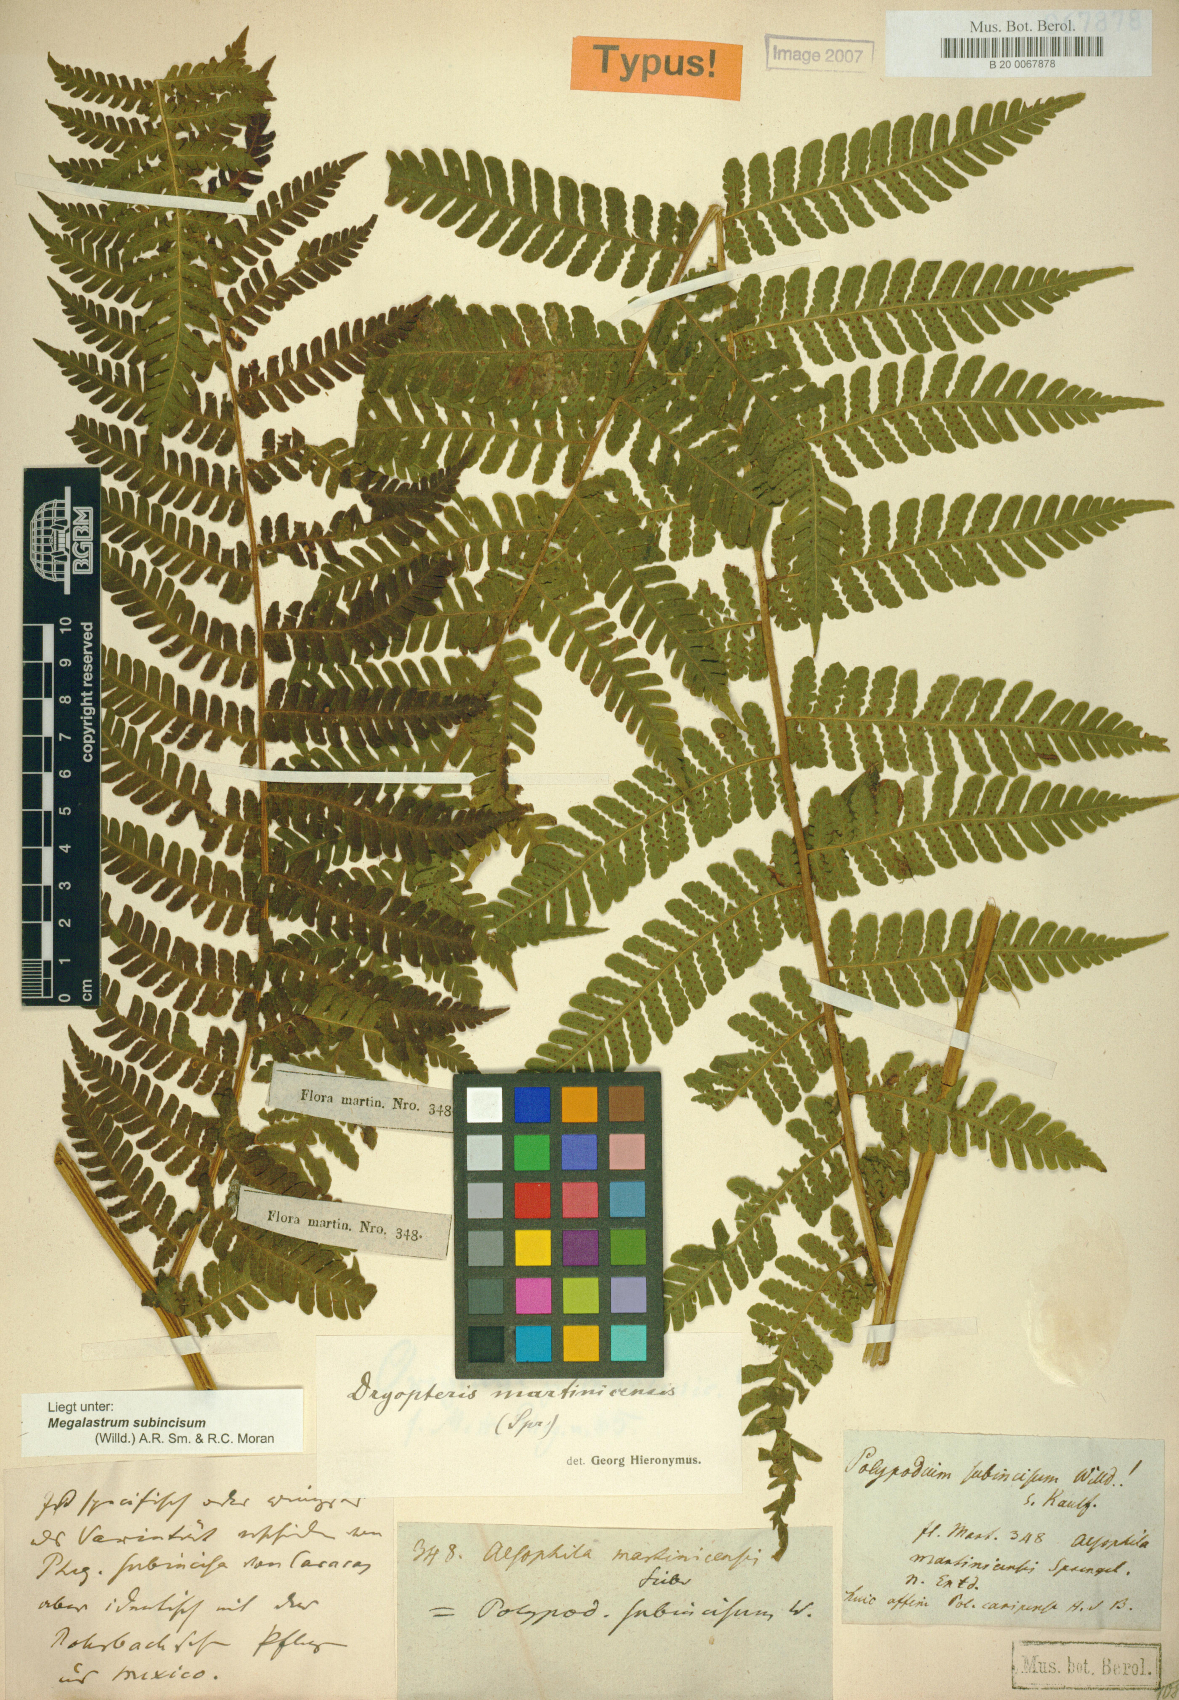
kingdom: Plantae
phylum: Tracheophyta
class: Polypodiopsida
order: Polypodiales
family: Dryopteridaceae
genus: Megalastrum
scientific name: Megalastrum martinicense
